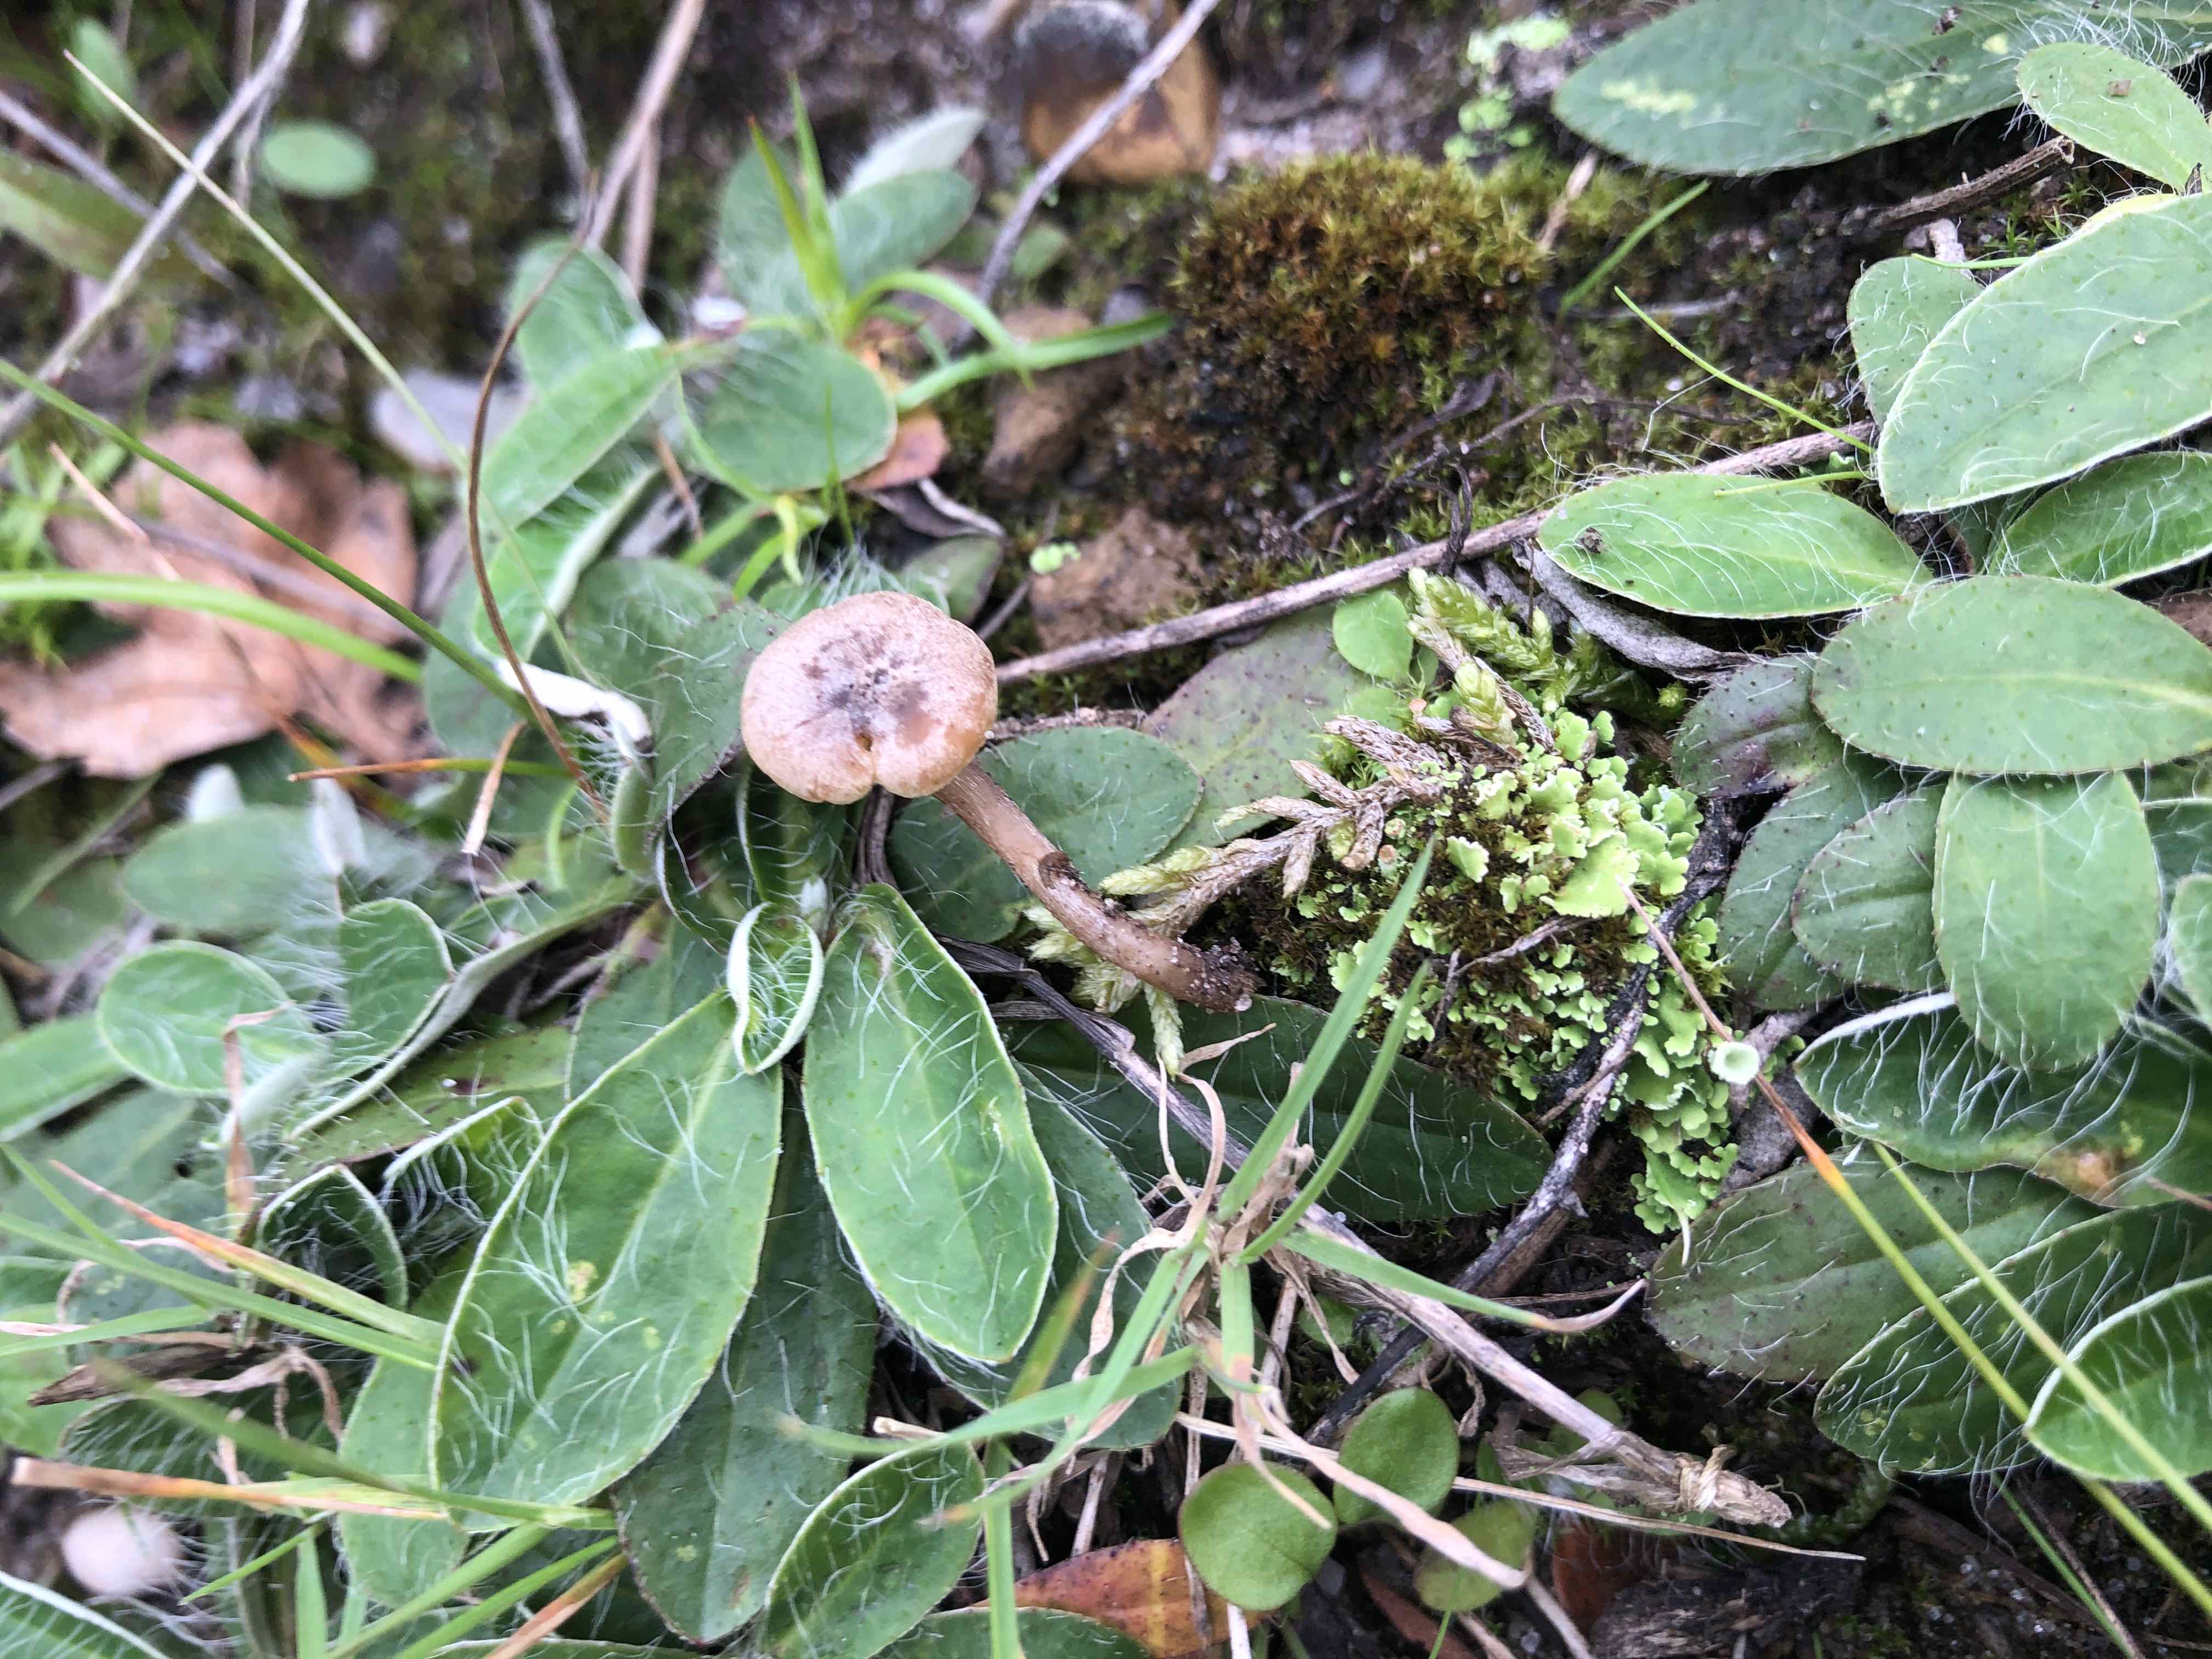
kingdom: Fungi
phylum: Basidiomycota
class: Agaricomycetes
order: Agaricales
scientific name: Agaricales
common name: champignonordenen
